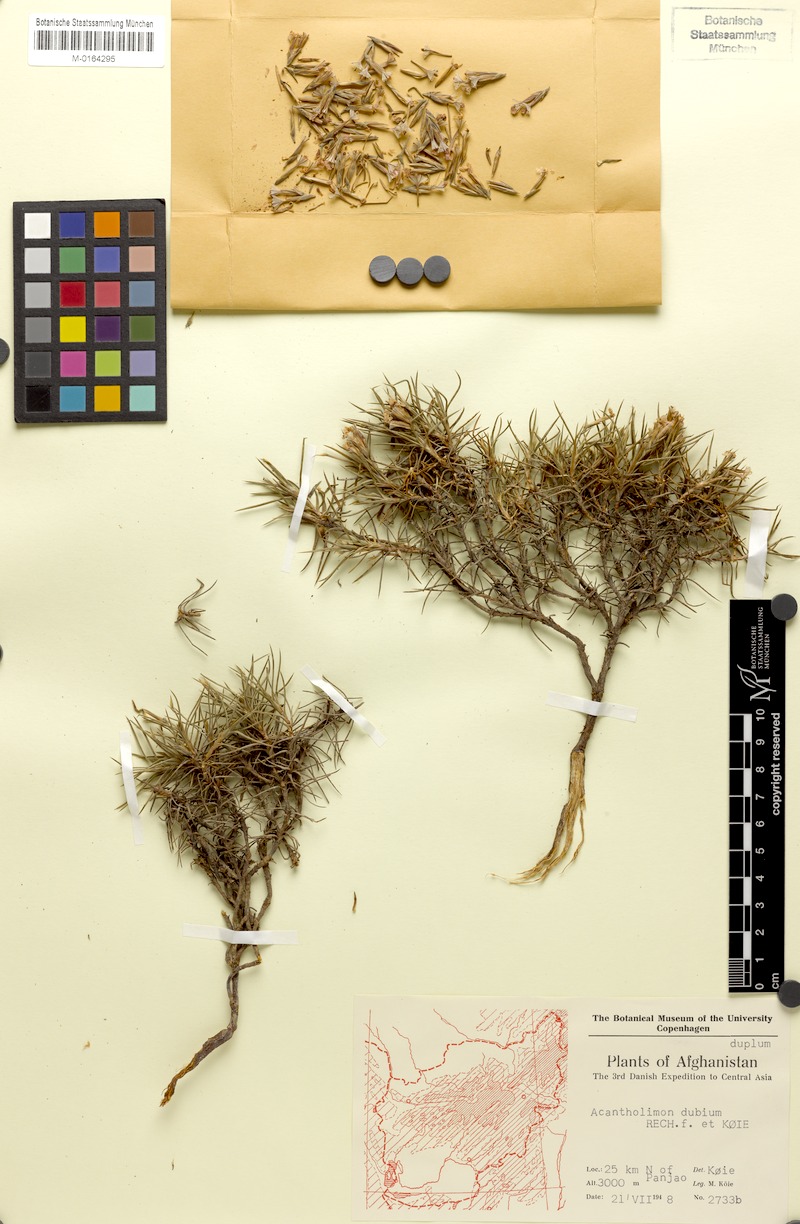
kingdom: Plantae
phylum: Tracheophyta
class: Magnoliopsida
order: Caryophyllales
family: Plumbaginaceae
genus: Acantholimon
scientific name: Acantholimon macranthum
